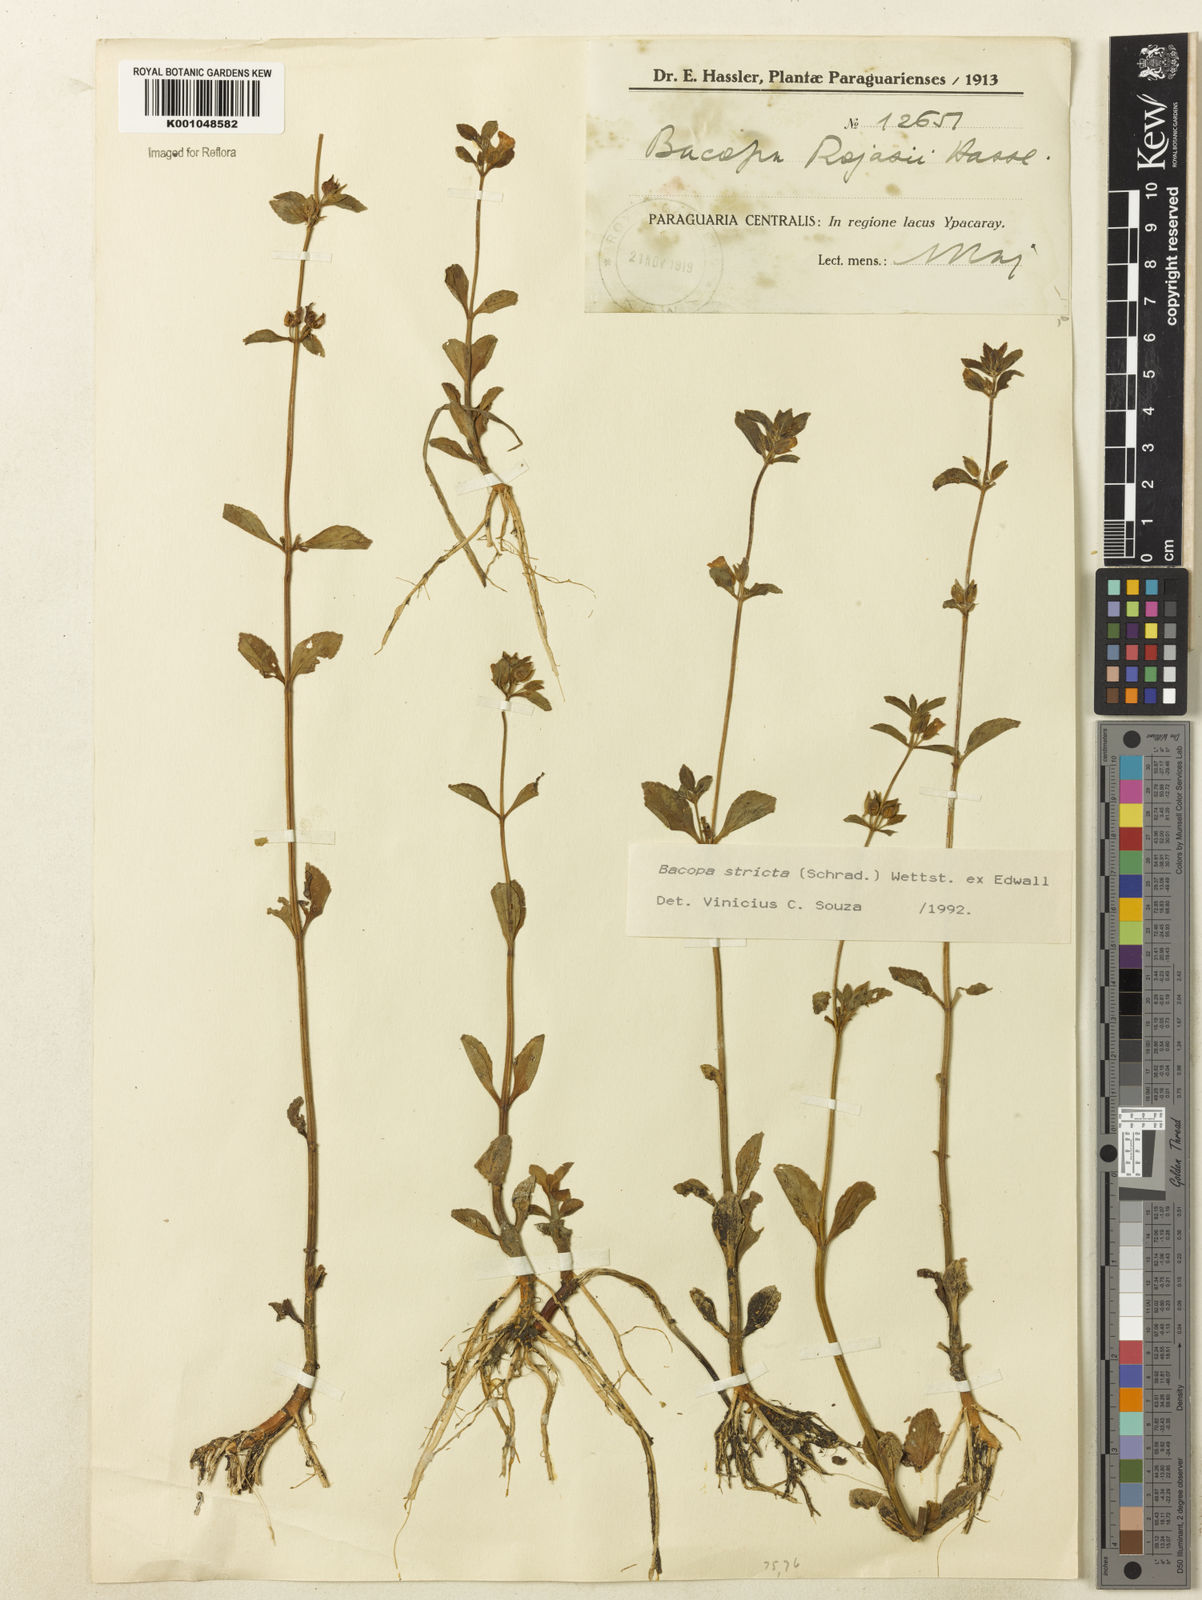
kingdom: Plantae
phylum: Tracheophyta
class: Magnoliopsida
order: Lamiales
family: Plantaginaceae
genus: Bacopa
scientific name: Bacopa stricta
